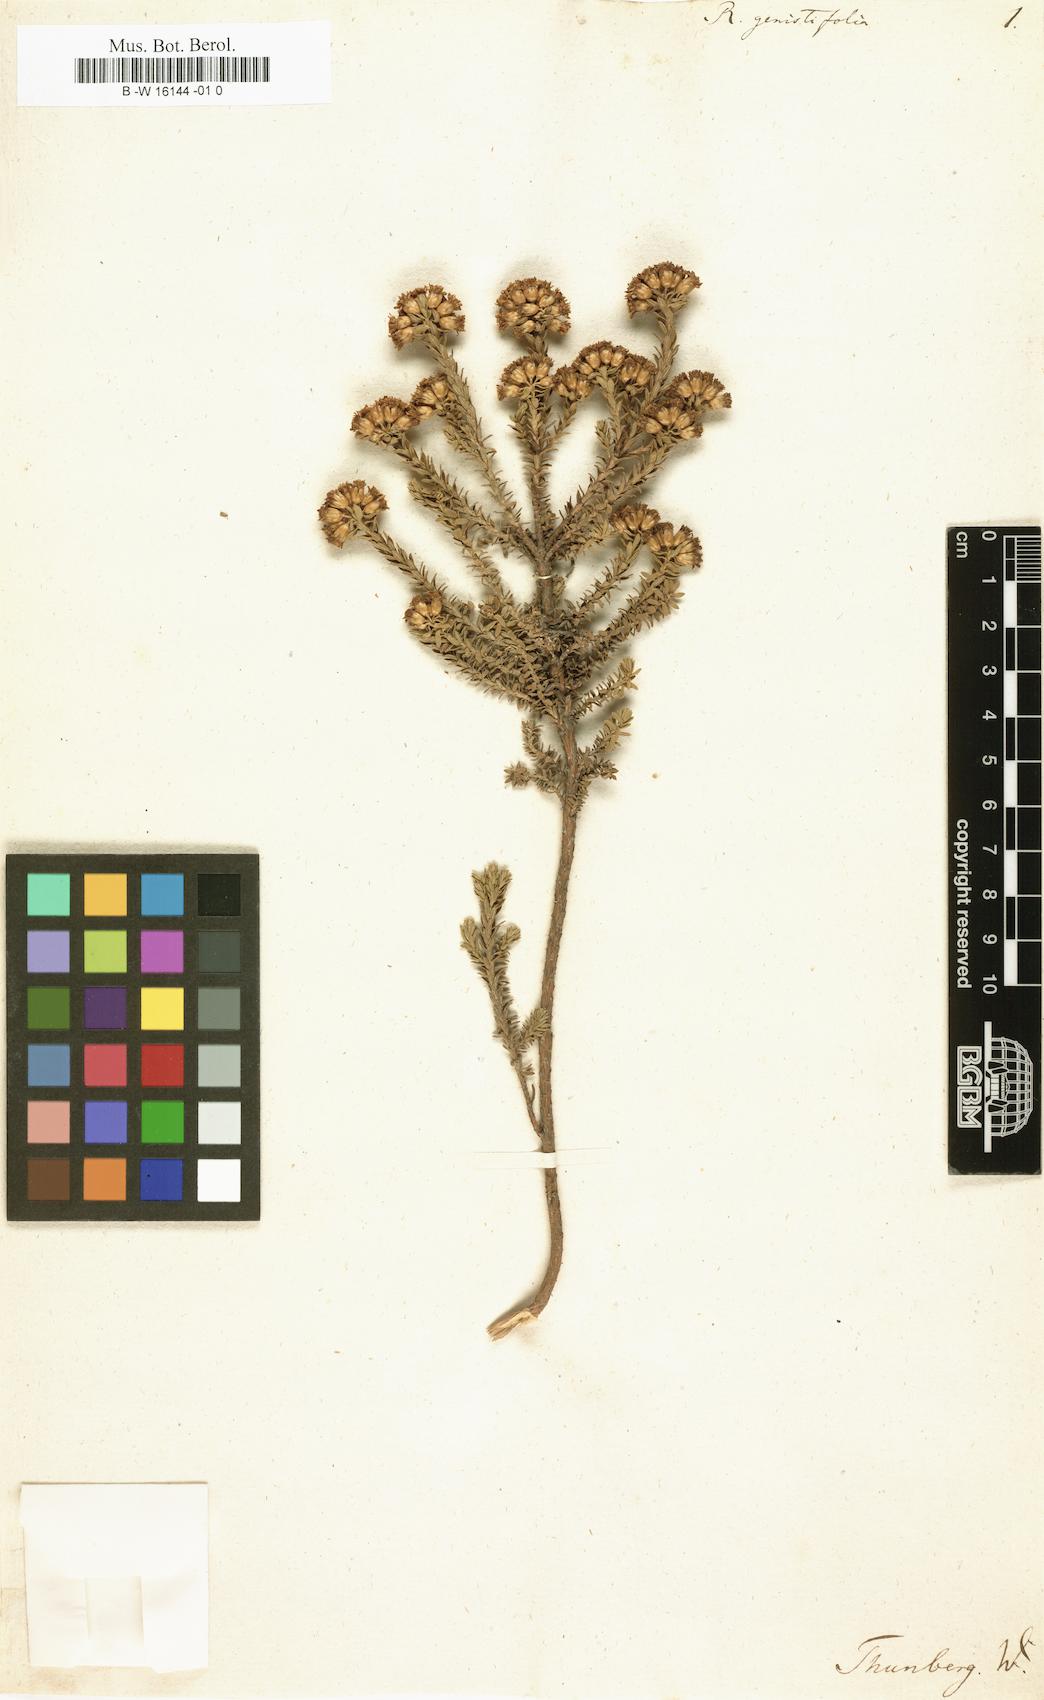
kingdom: Plantae
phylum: Tracheophyta
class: Magnoliopsida
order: Asterales
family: Asteraceae
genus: Oedera
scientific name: Oedera genistifolia
